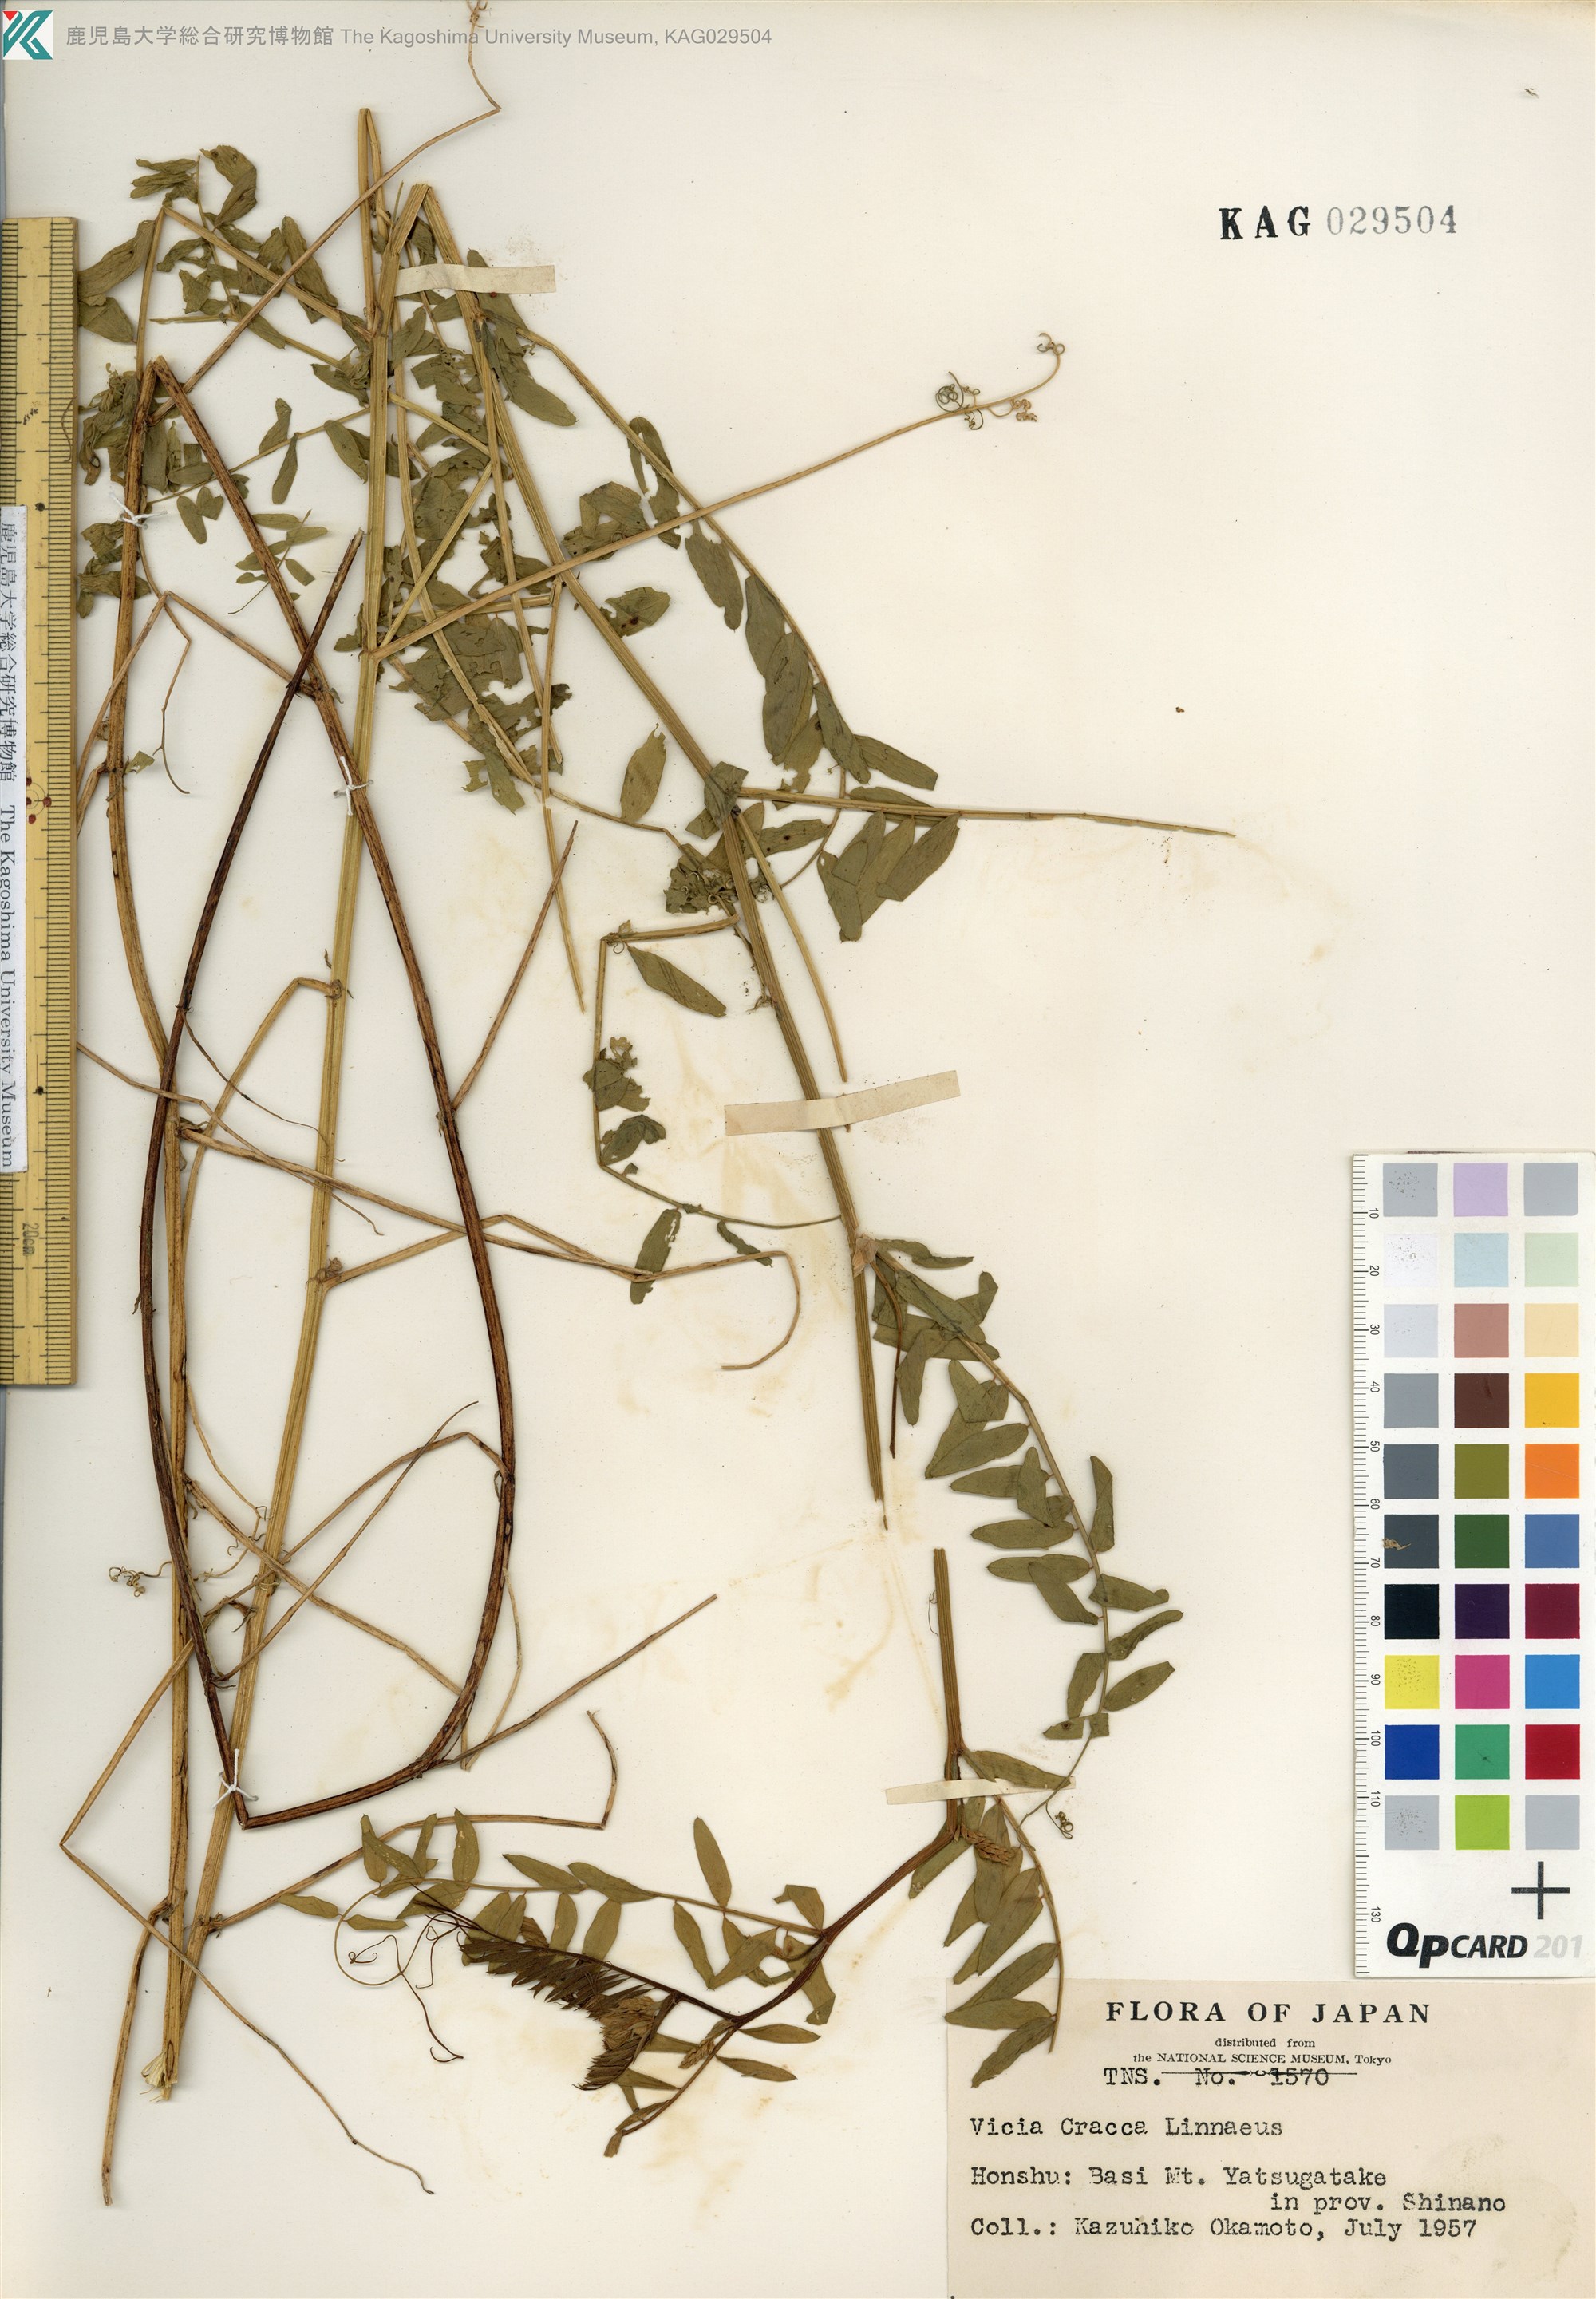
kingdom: Plantae
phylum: Tracheophyta
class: Magnoliopsida
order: Fabales
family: Fabaceae
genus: Vicia
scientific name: Vicia cracca
